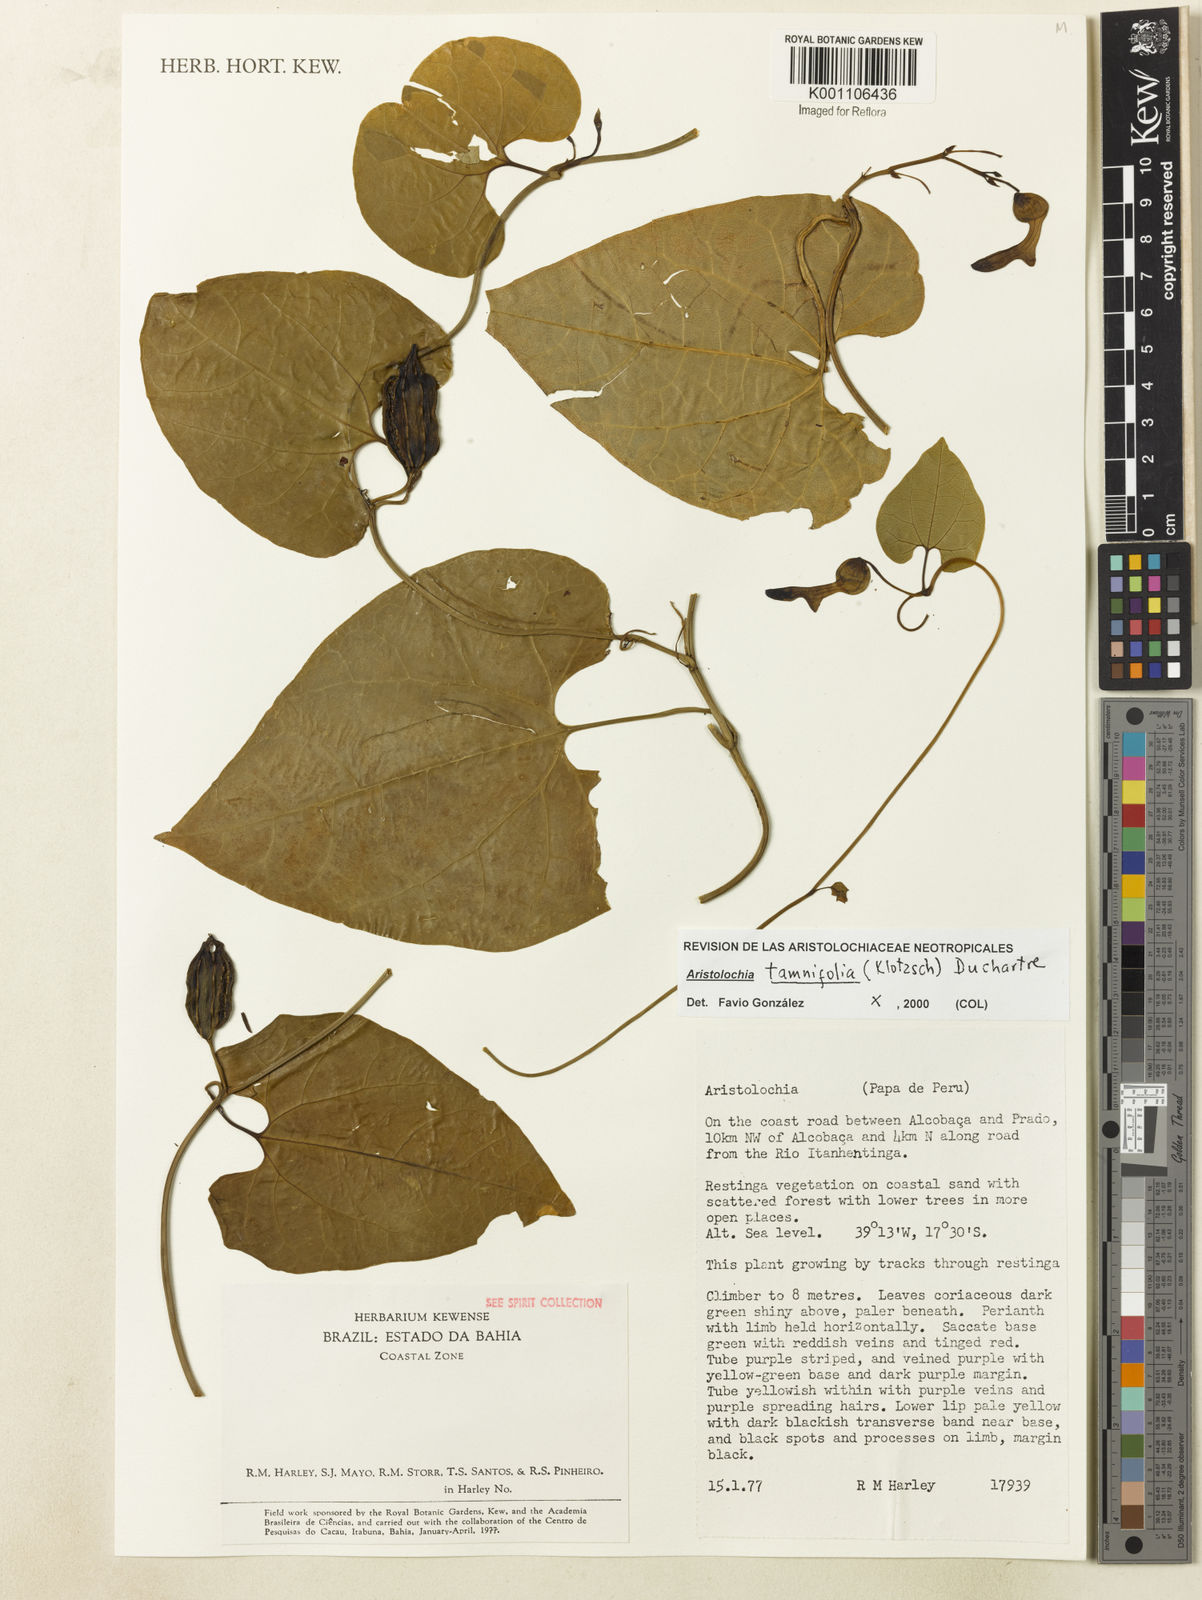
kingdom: Plantae
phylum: Tracheophyta
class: Magnoliopsida
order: Piperales
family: Aristolochiaceae
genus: Aristolochia
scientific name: Aristolochia tamnifolia
